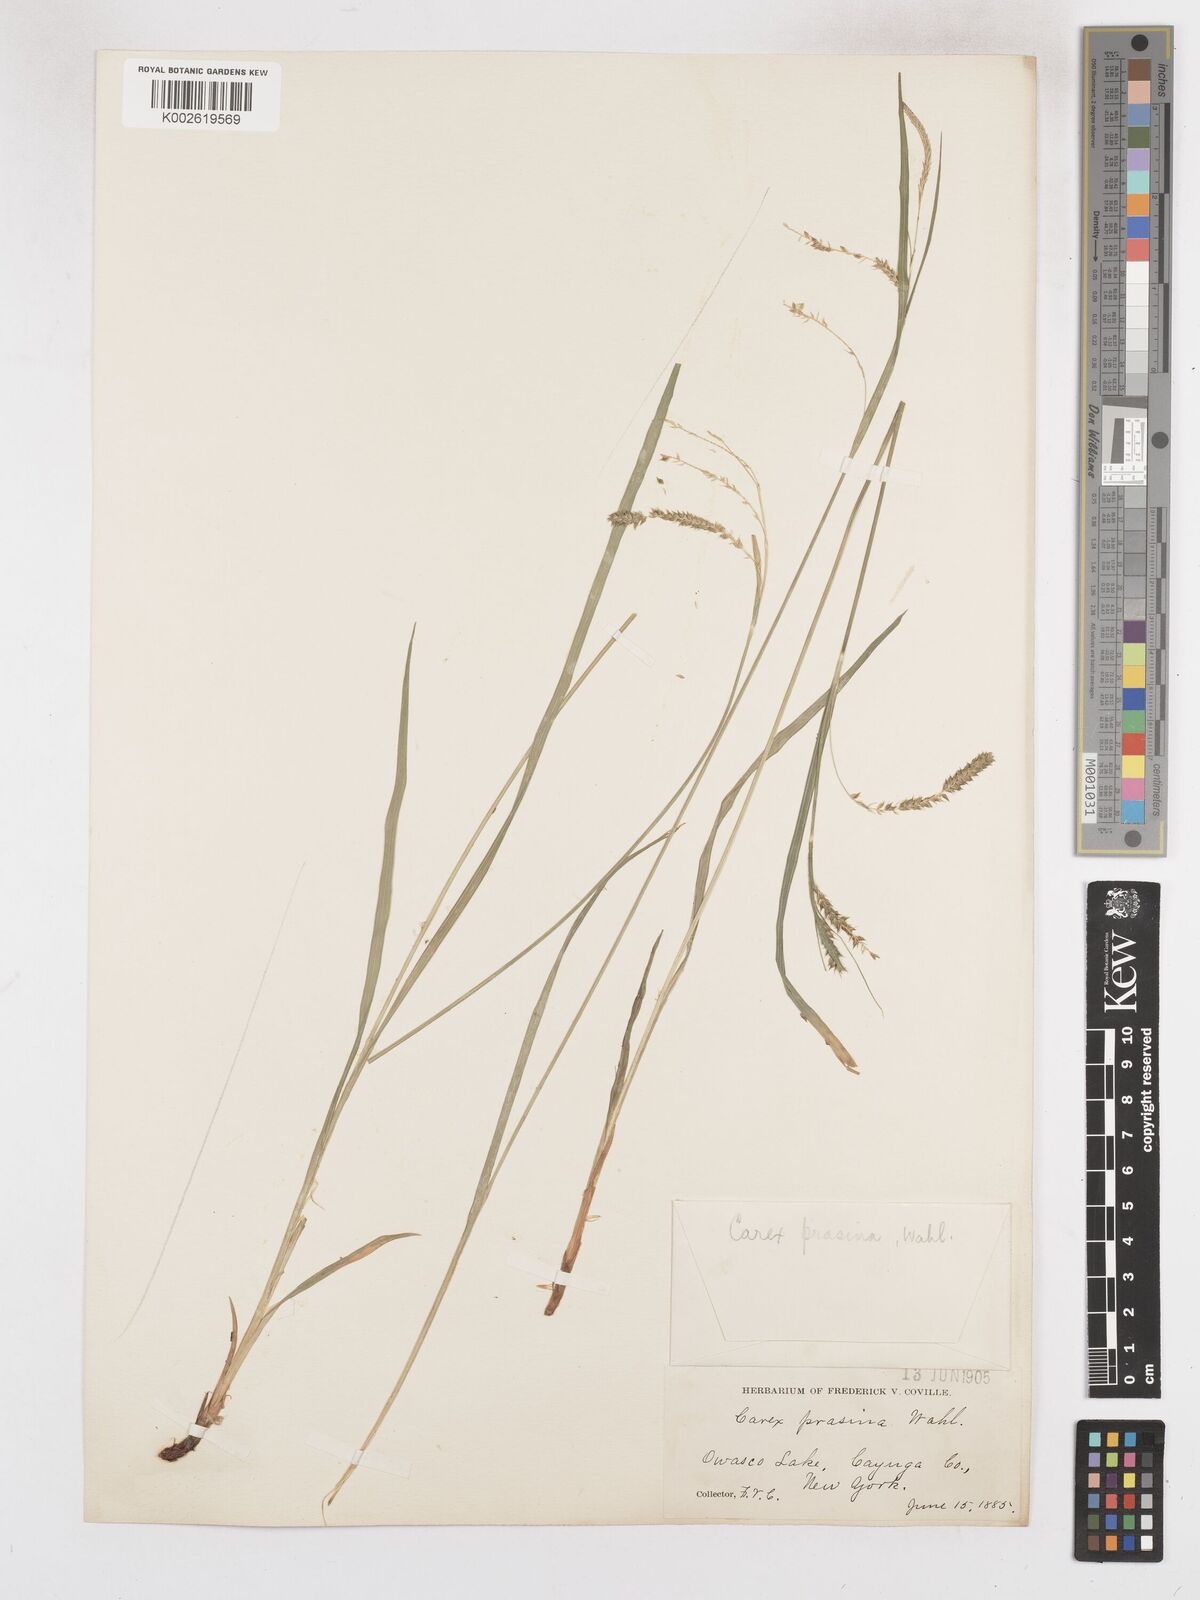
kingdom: Plantae
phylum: Tracheophyta
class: Liliopsida
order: Poales
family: Cyperaceae
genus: Carex
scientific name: Carex prasina
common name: Drooping sedge
